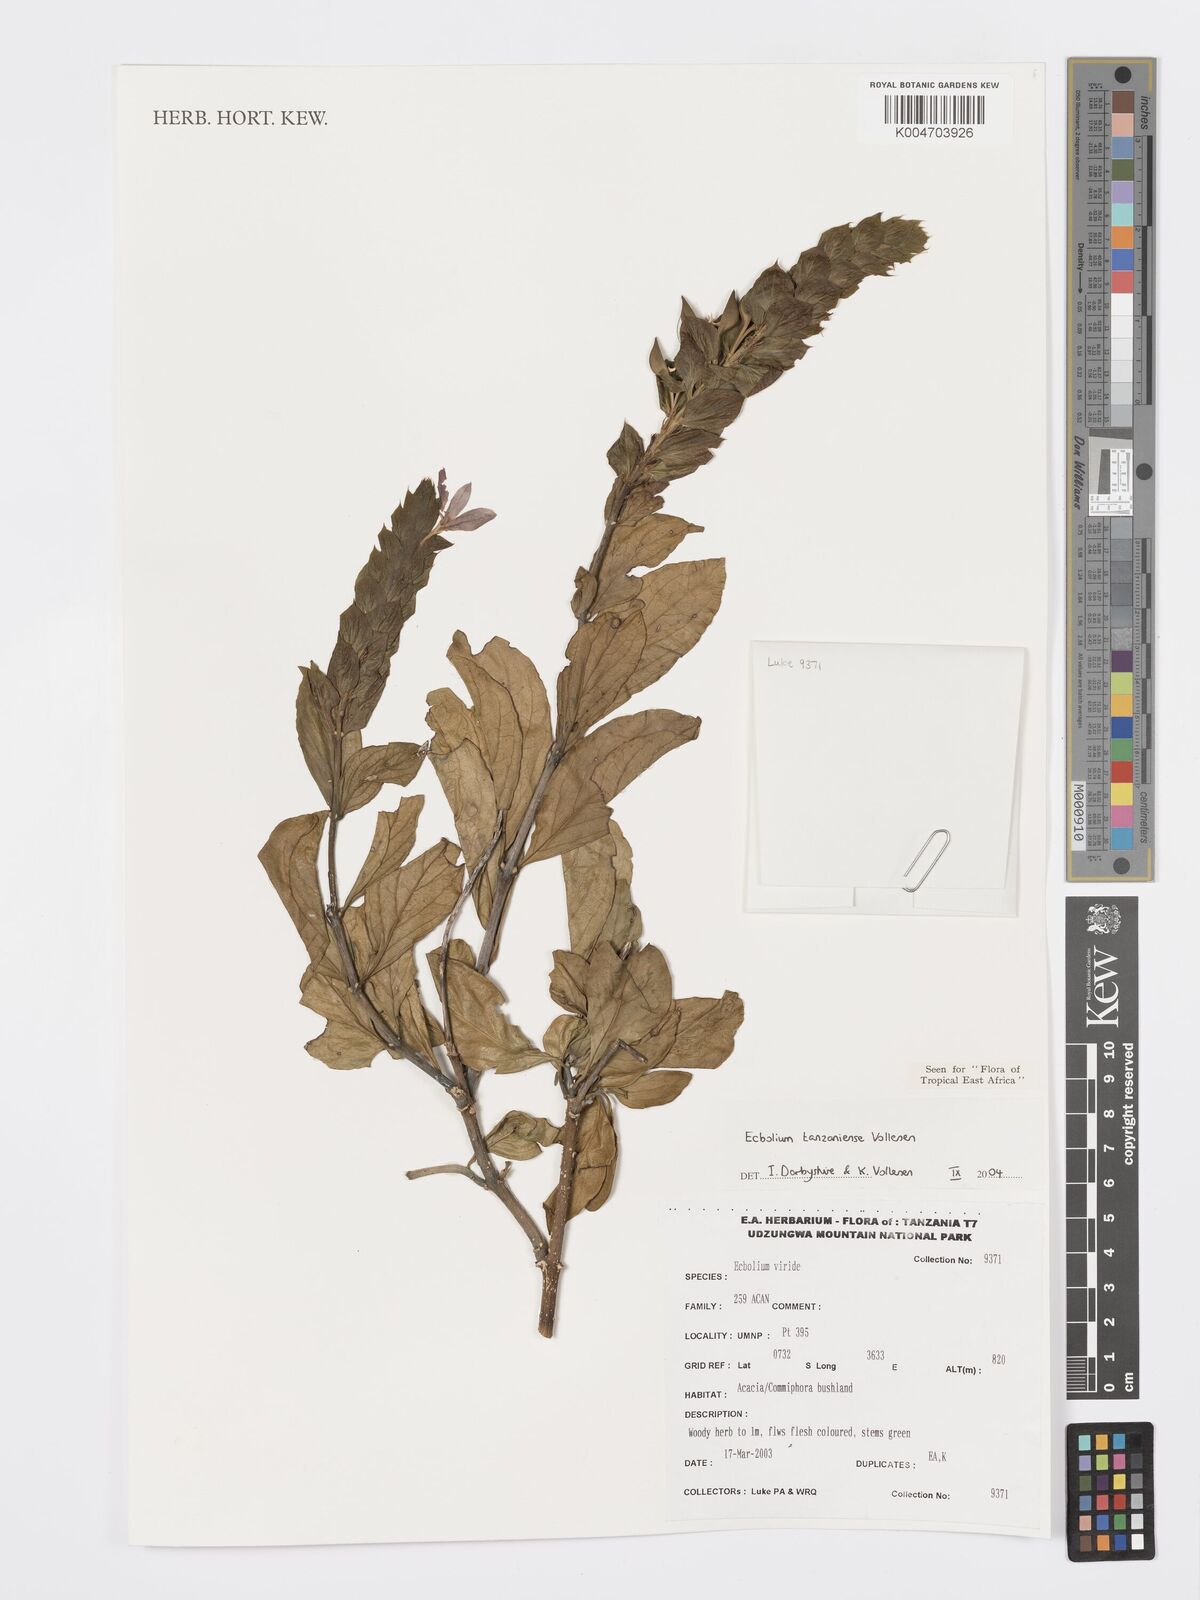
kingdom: Plantae
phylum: Tracheophyta
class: Magnoliopsida
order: Lamiales
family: Acanthaceae
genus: Ecbolium
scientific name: Ecbolium tanzaniense
